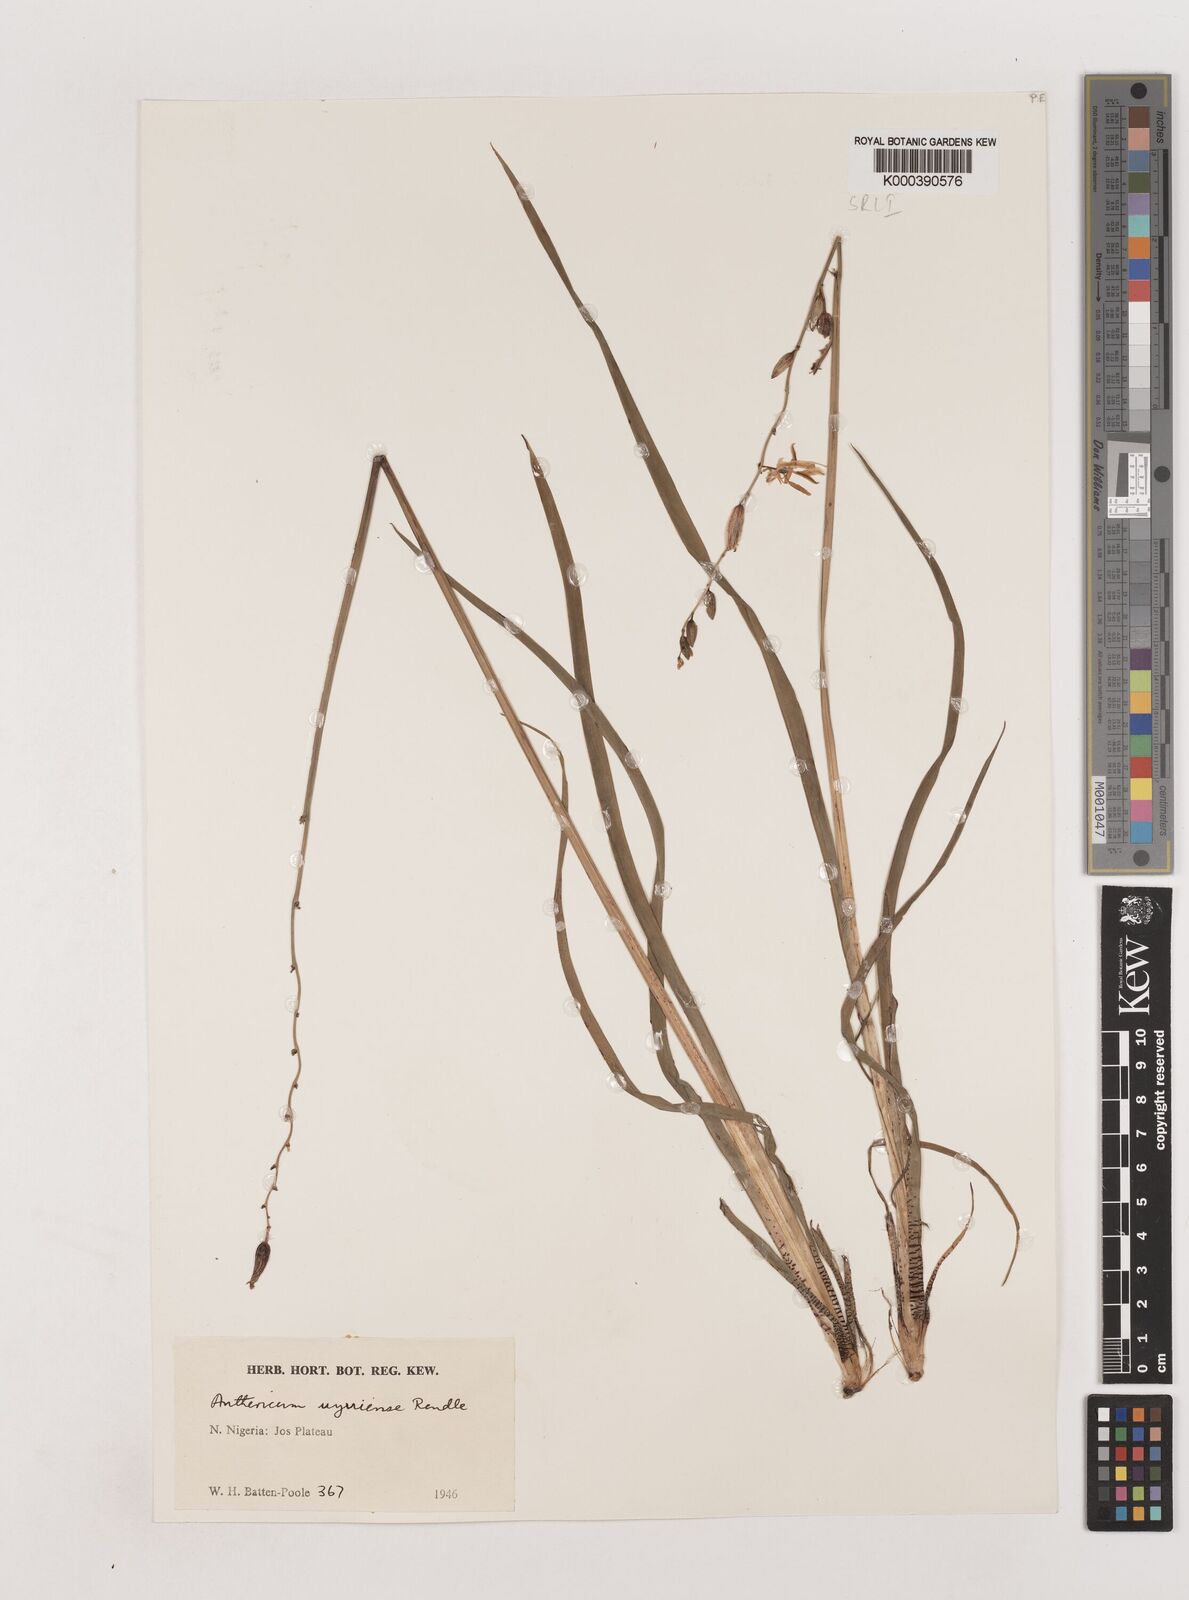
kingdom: Plantae
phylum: Tracheophyta
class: Liliopsida
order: Asparagales
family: Asparagaceae
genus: Chlorophytum
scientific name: Chlorophytum cameronii
